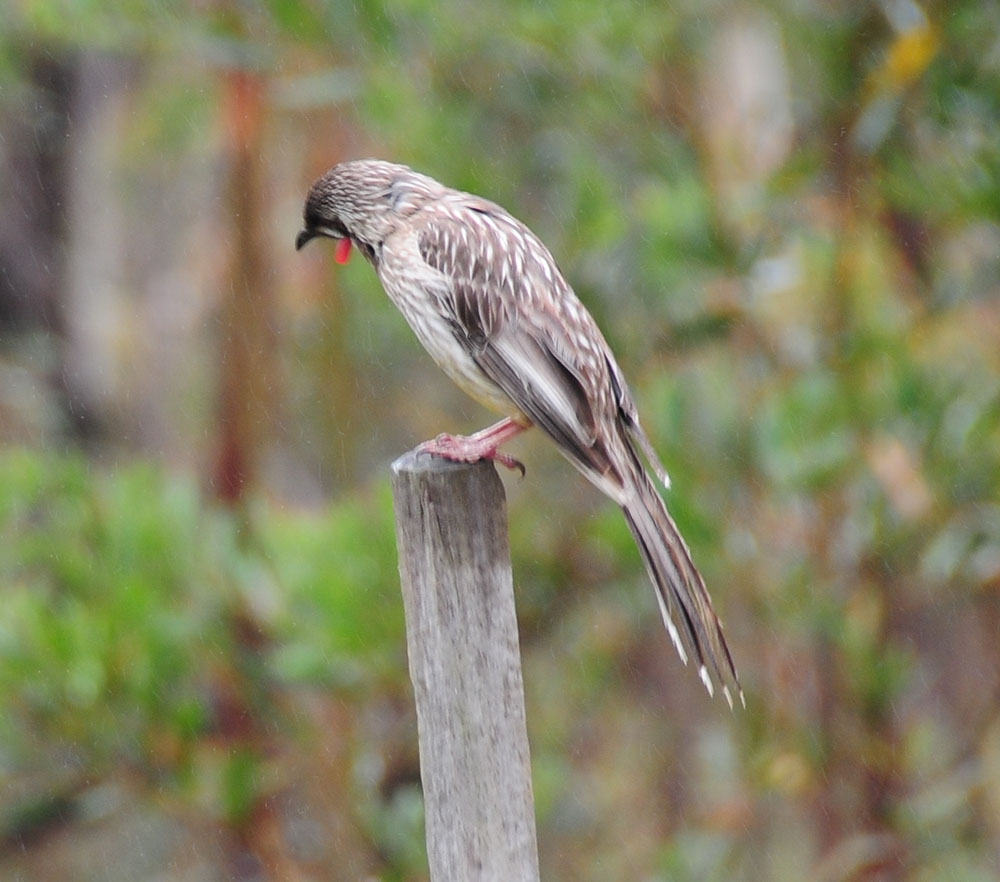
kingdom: Animalia
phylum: Chordata
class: Aves
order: Passeriformes
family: Meliphagidae
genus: Anthochaera
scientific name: Anthochaera carunculata
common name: Red wattlebird
